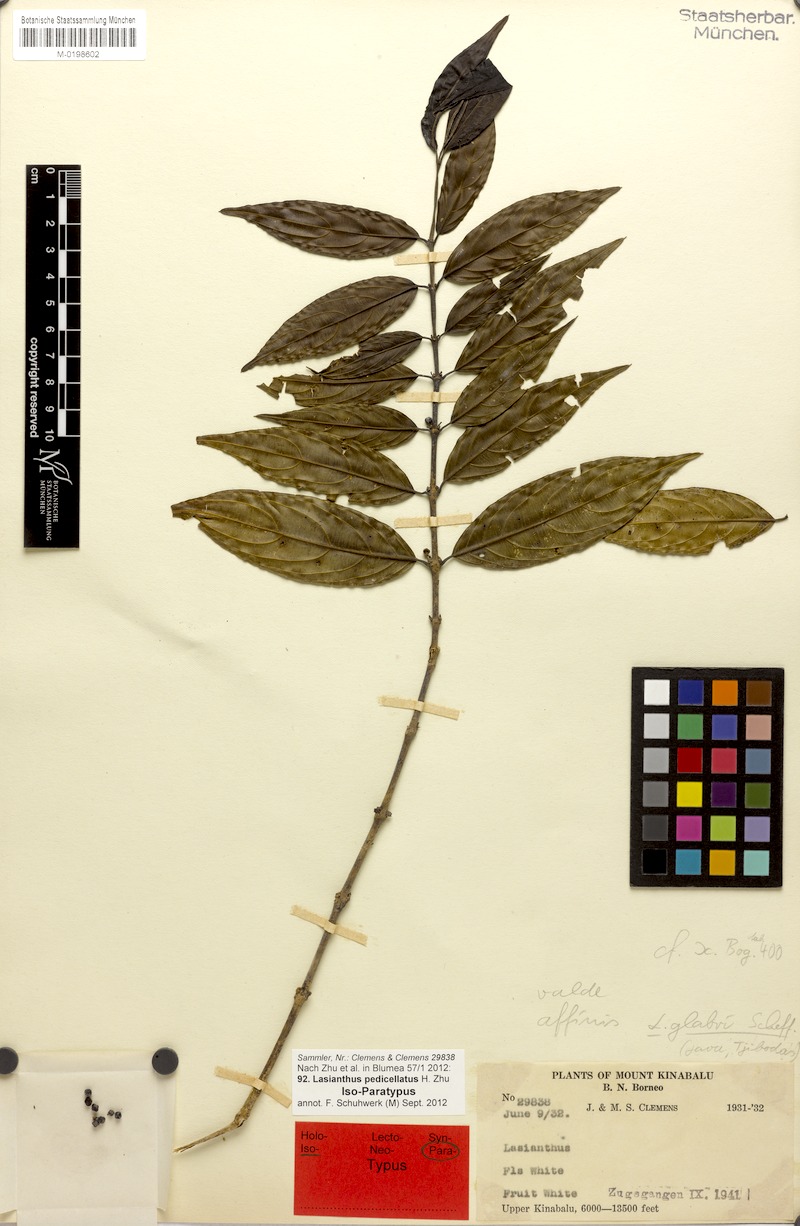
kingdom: Plantae
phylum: Tracheophyta
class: Magnoliopsida
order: Gentianales
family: Rubiaceae
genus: Lasianthus
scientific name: Lasianthus pedicellatus
